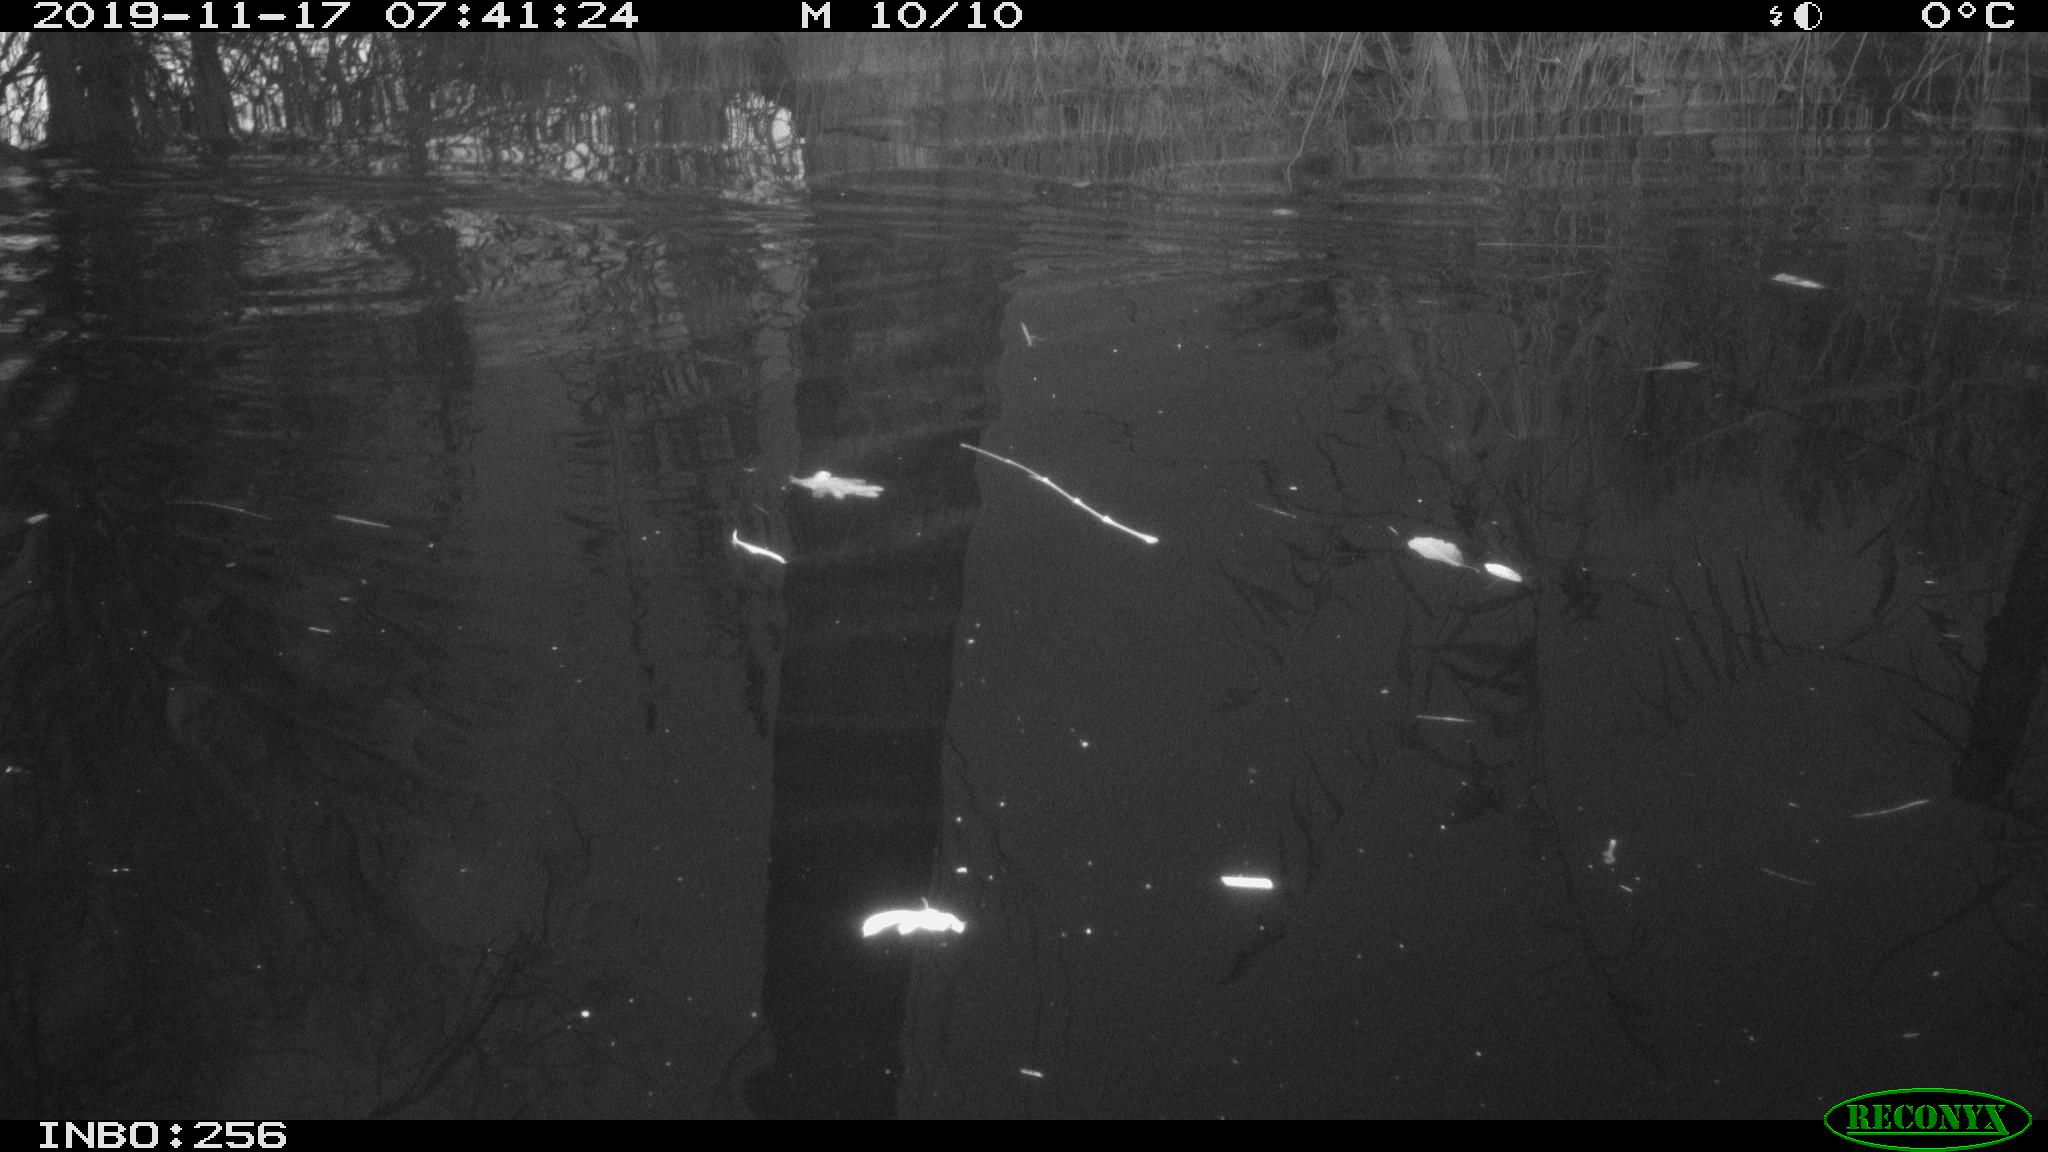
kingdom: Animalia
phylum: Chordata
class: Aves
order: Gruiformes
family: Rallidae
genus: Gallinula
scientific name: Gallinula chloropus
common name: Common moorhen
